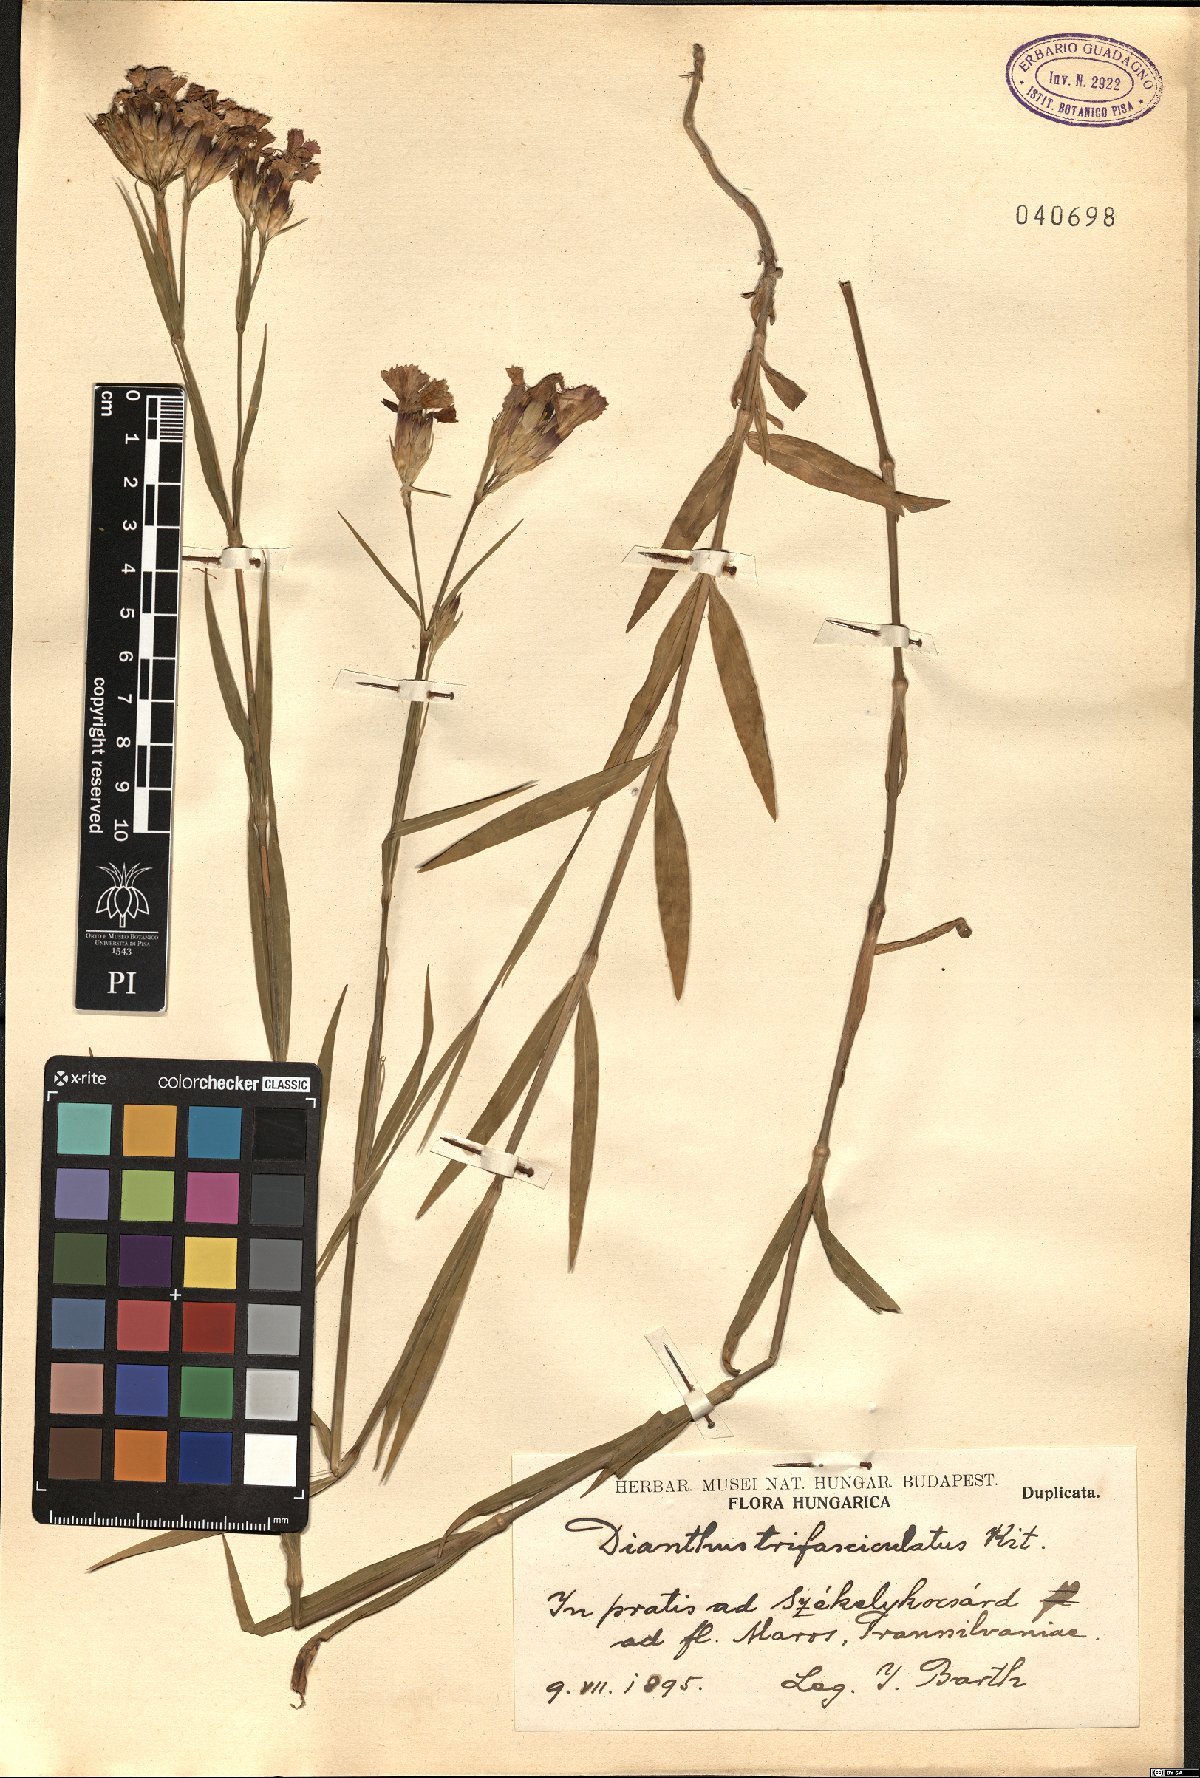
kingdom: Plantae
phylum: Tracheophyta
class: Magnoliopsida
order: Caryophyllales
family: Caryophyllaceae
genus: Dianthus
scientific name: Dianthus trifasciculatus
